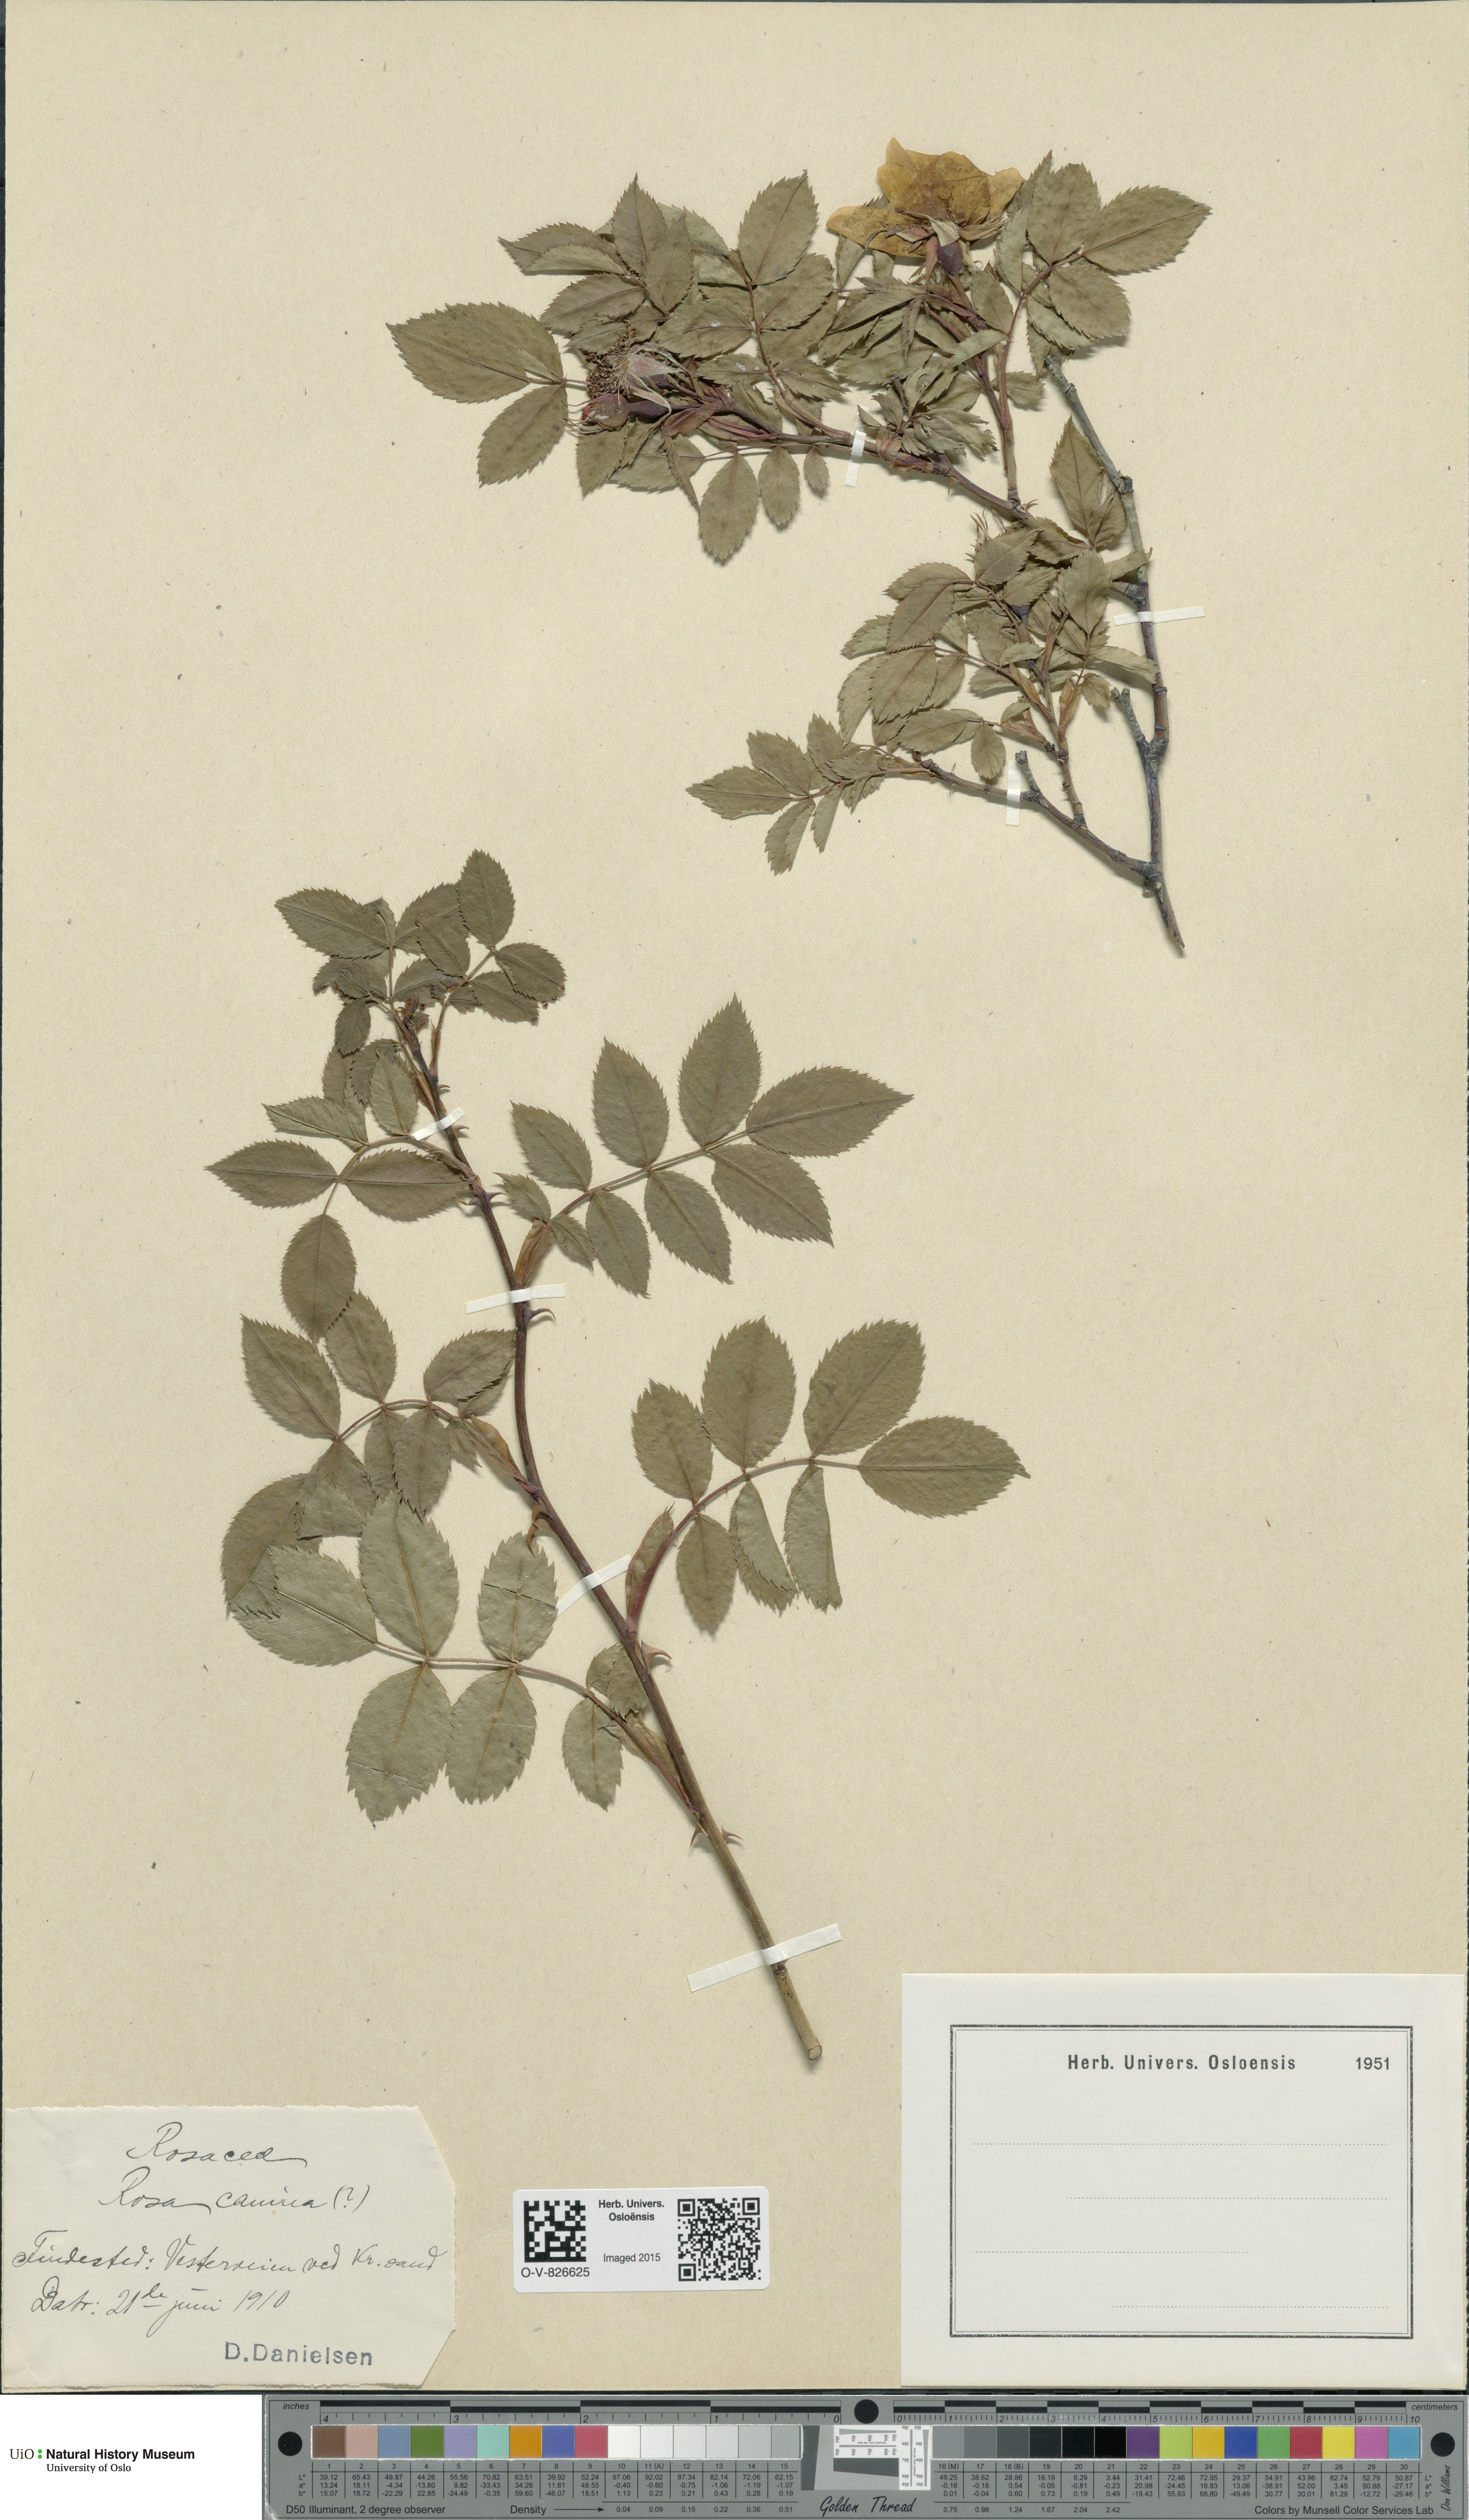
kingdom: Plantae
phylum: Tracheophyta
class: Magnoliopsida
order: Rosales
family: Rosaceae
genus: Rosa
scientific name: Rosa canina
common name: Dog rose
